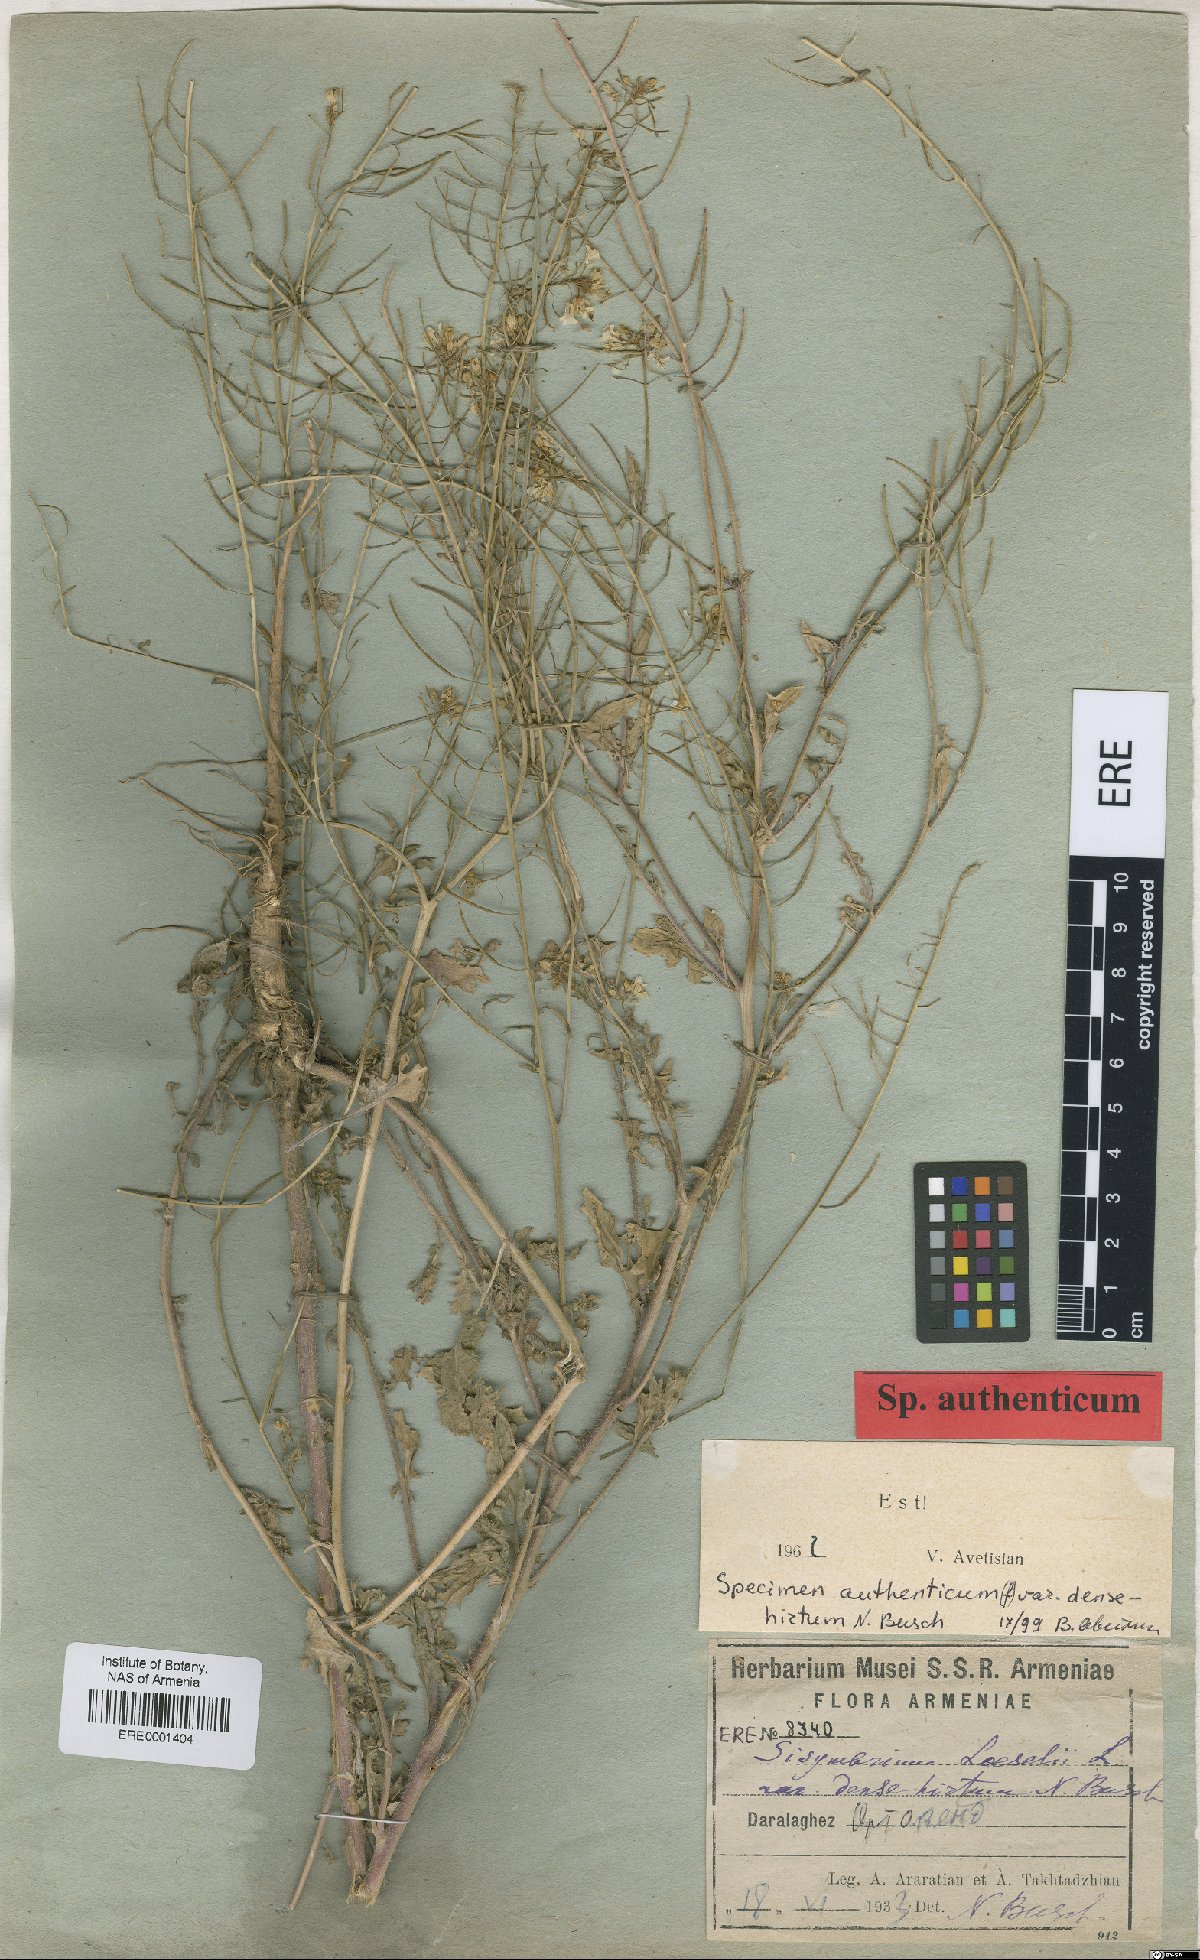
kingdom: Plantae
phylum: Tracheophyta
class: Magnoliopsida
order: Brassicales
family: Brassicaceae
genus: Sisymbrium
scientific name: Sisymbrium loeselii
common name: False london-rocket
